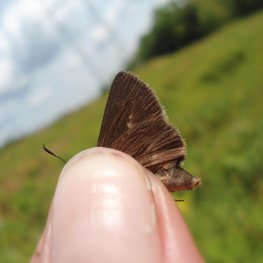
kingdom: Animalia
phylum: Arthropoda
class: Insecta
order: Lepidoptera
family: Hesperiidae
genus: Euphyes
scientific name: Euphyes vestris
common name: Dun Skipper
